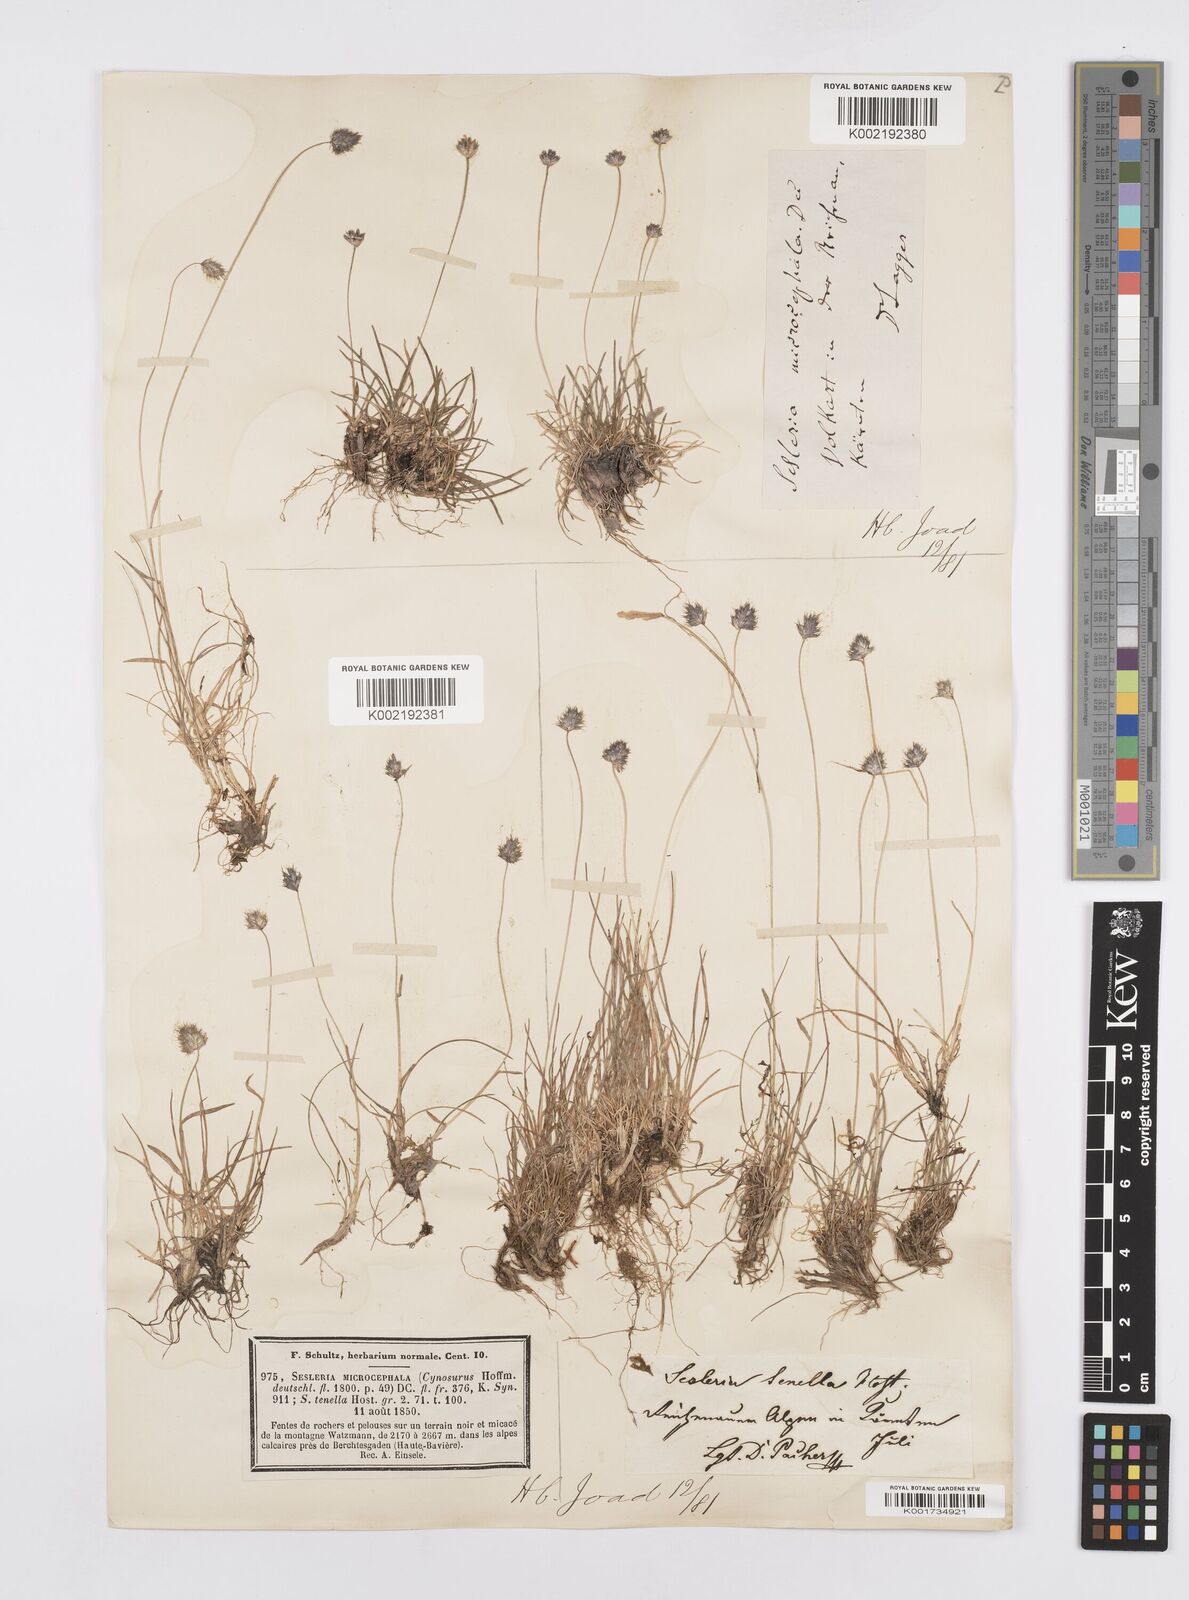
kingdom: Plantae
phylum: Tracheophyta
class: Liliopsida
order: Poales
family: Poaceae
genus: Psilathera
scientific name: Psilathera ovata
